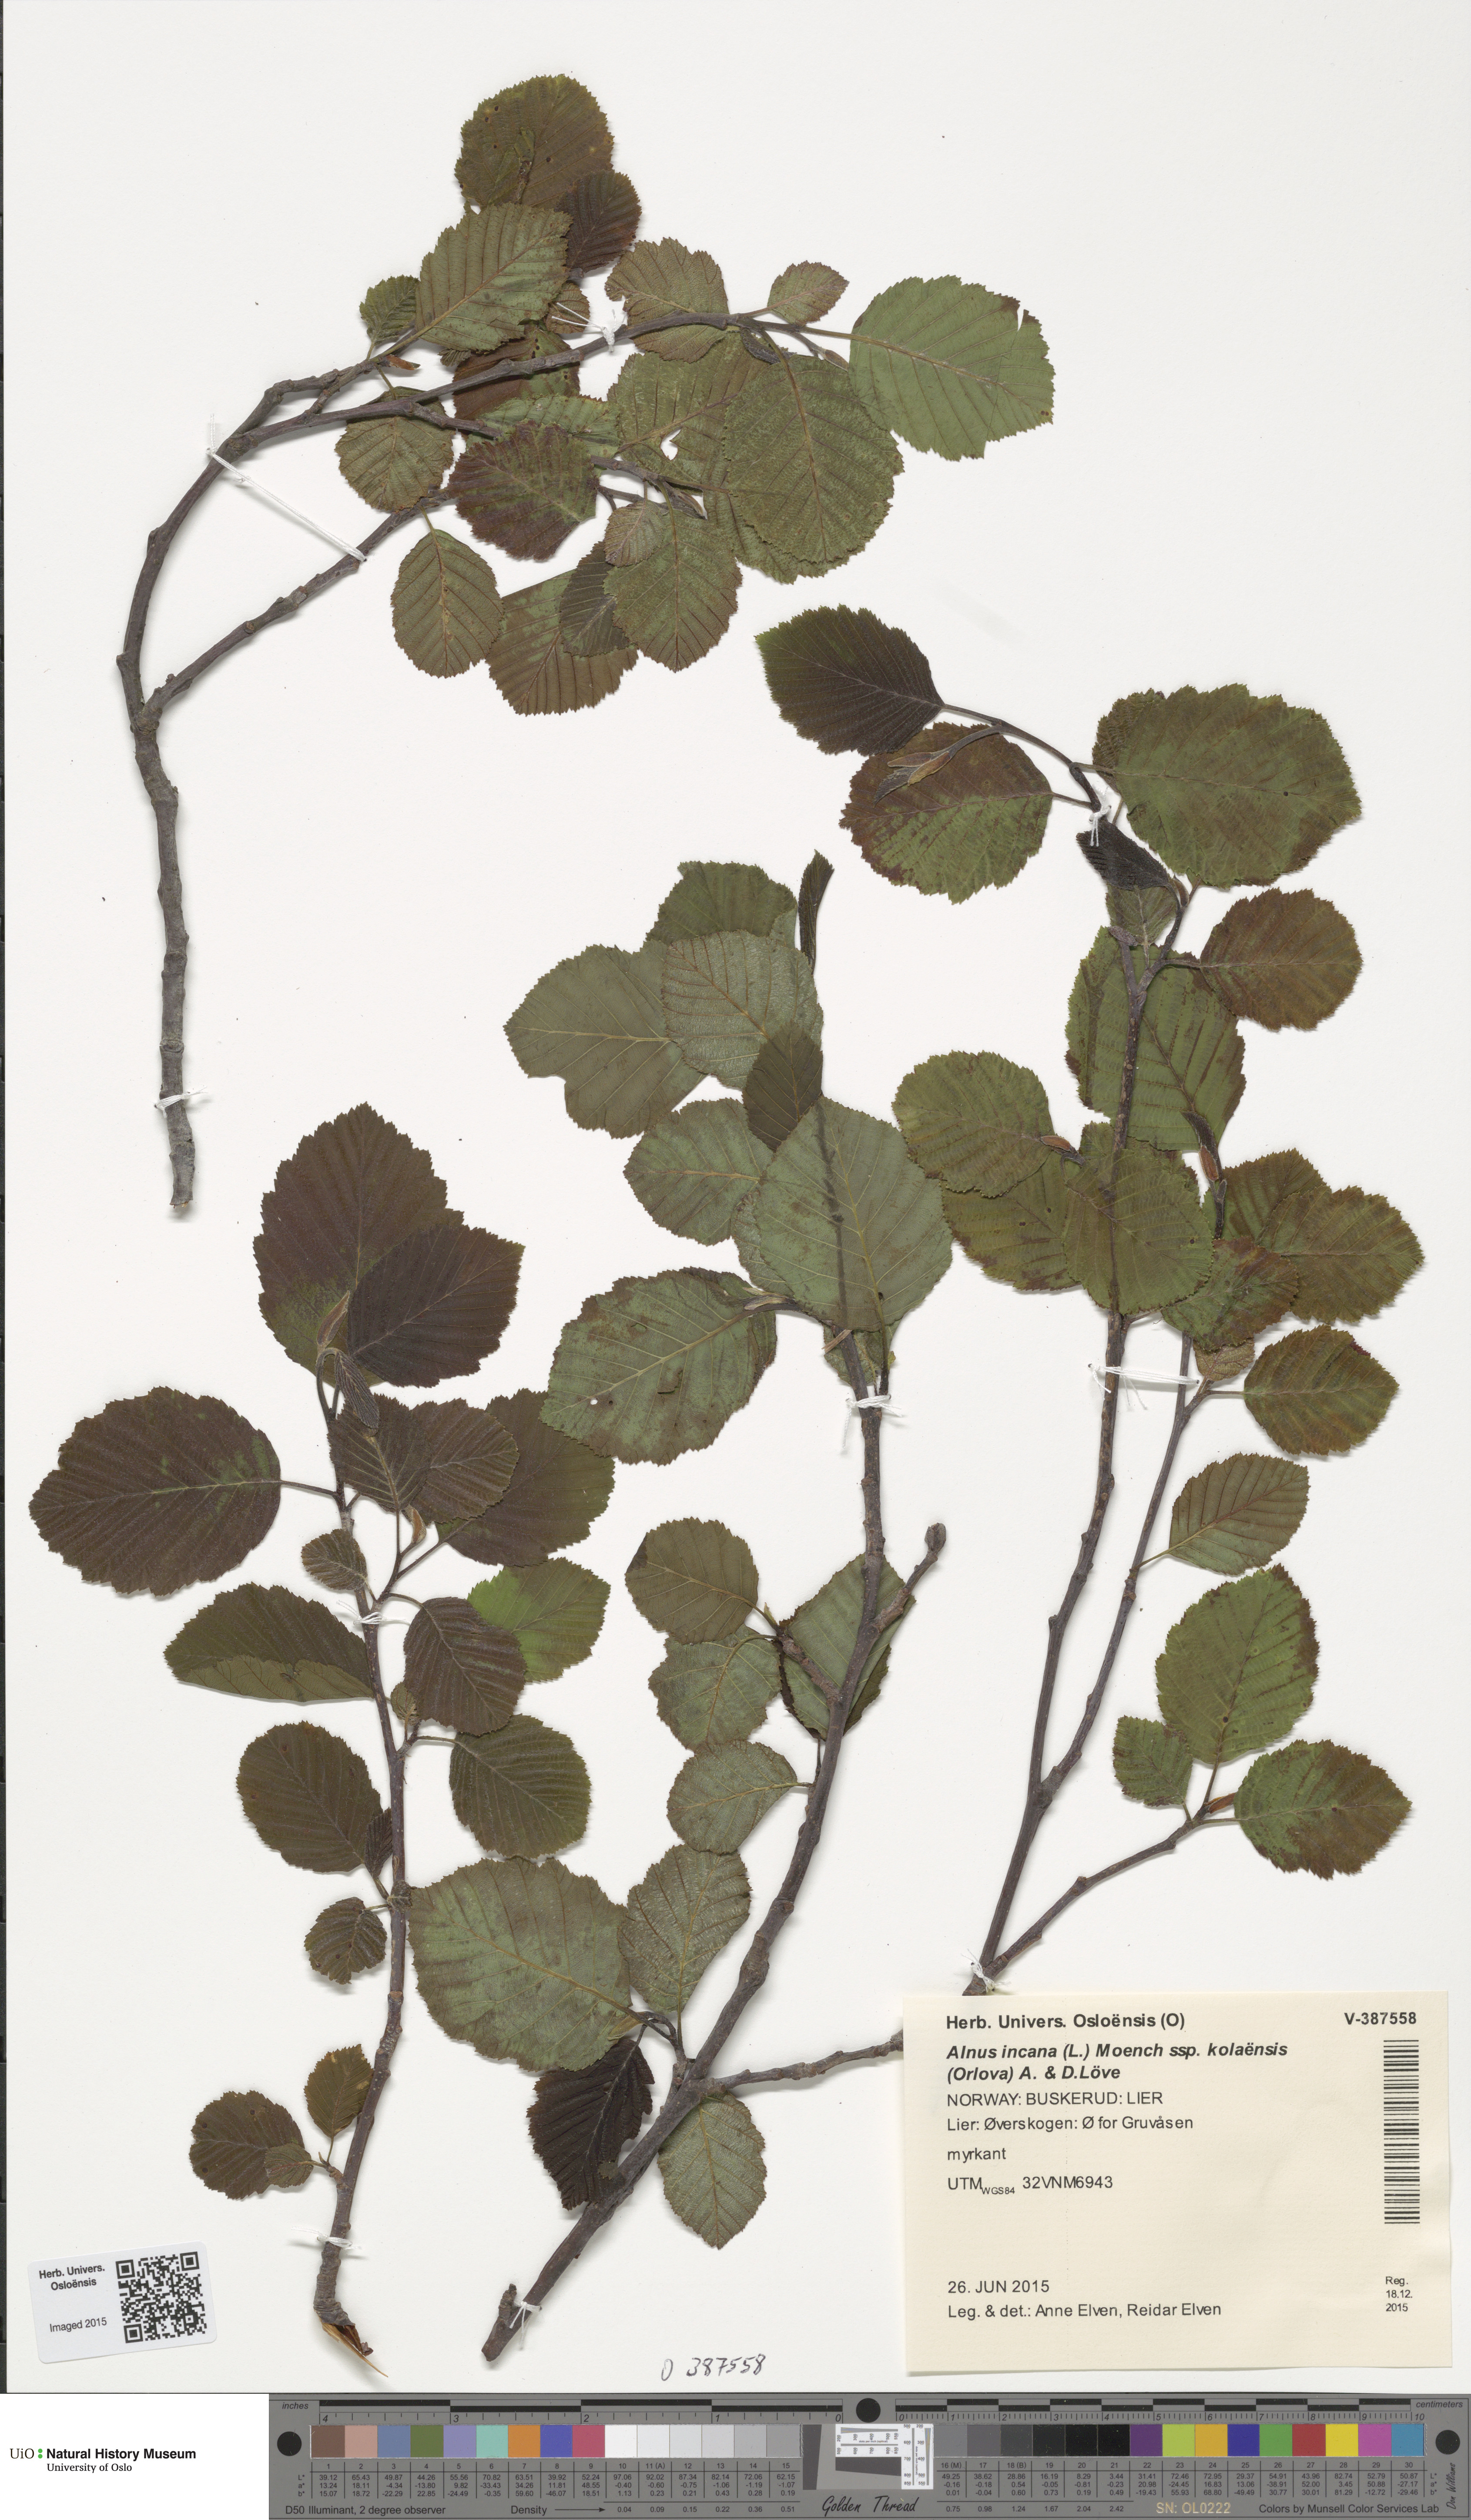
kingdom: Plantae
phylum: Tracheophyta
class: Magnoliopsida
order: Fagales
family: Betulaceae
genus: Alnus
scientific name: Alnus incana
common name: Grey alder
